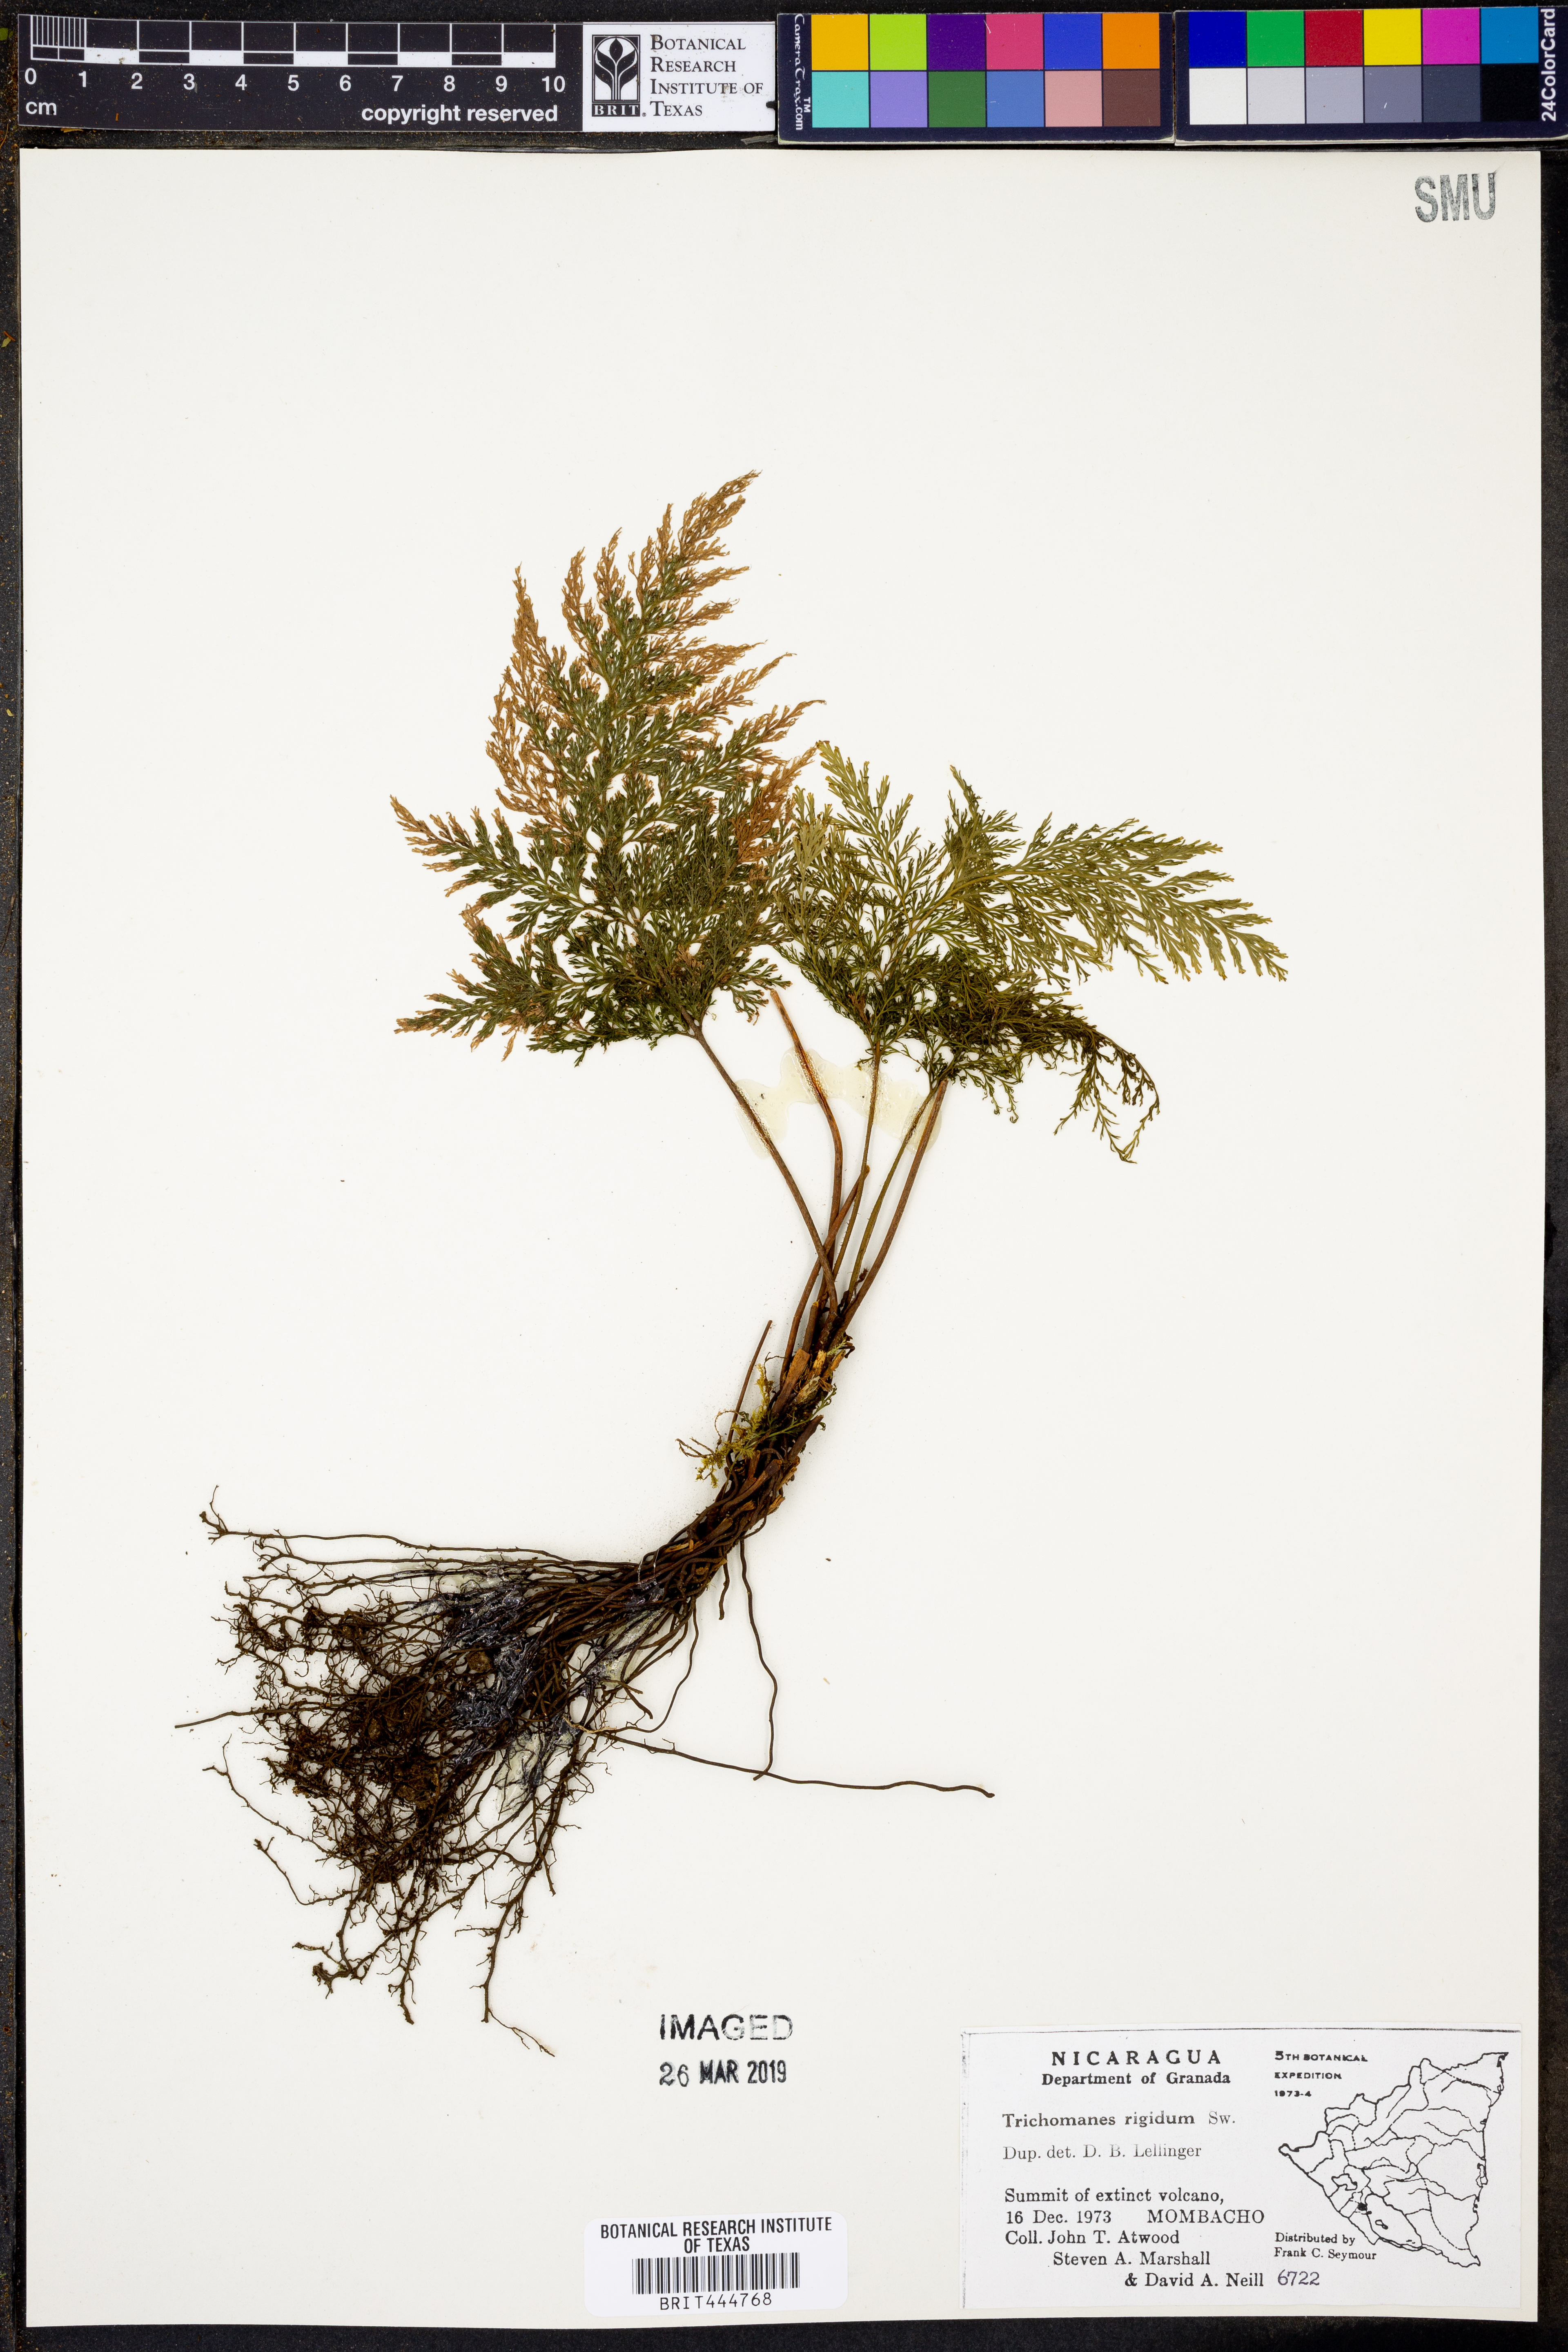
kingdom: Plantae
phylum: Tracheophyta
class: Polypodiopsida
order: Hymenophyllales
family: Hymenophyllaceae
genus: Abrodictyum
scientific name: Abrodictyum rigidum
